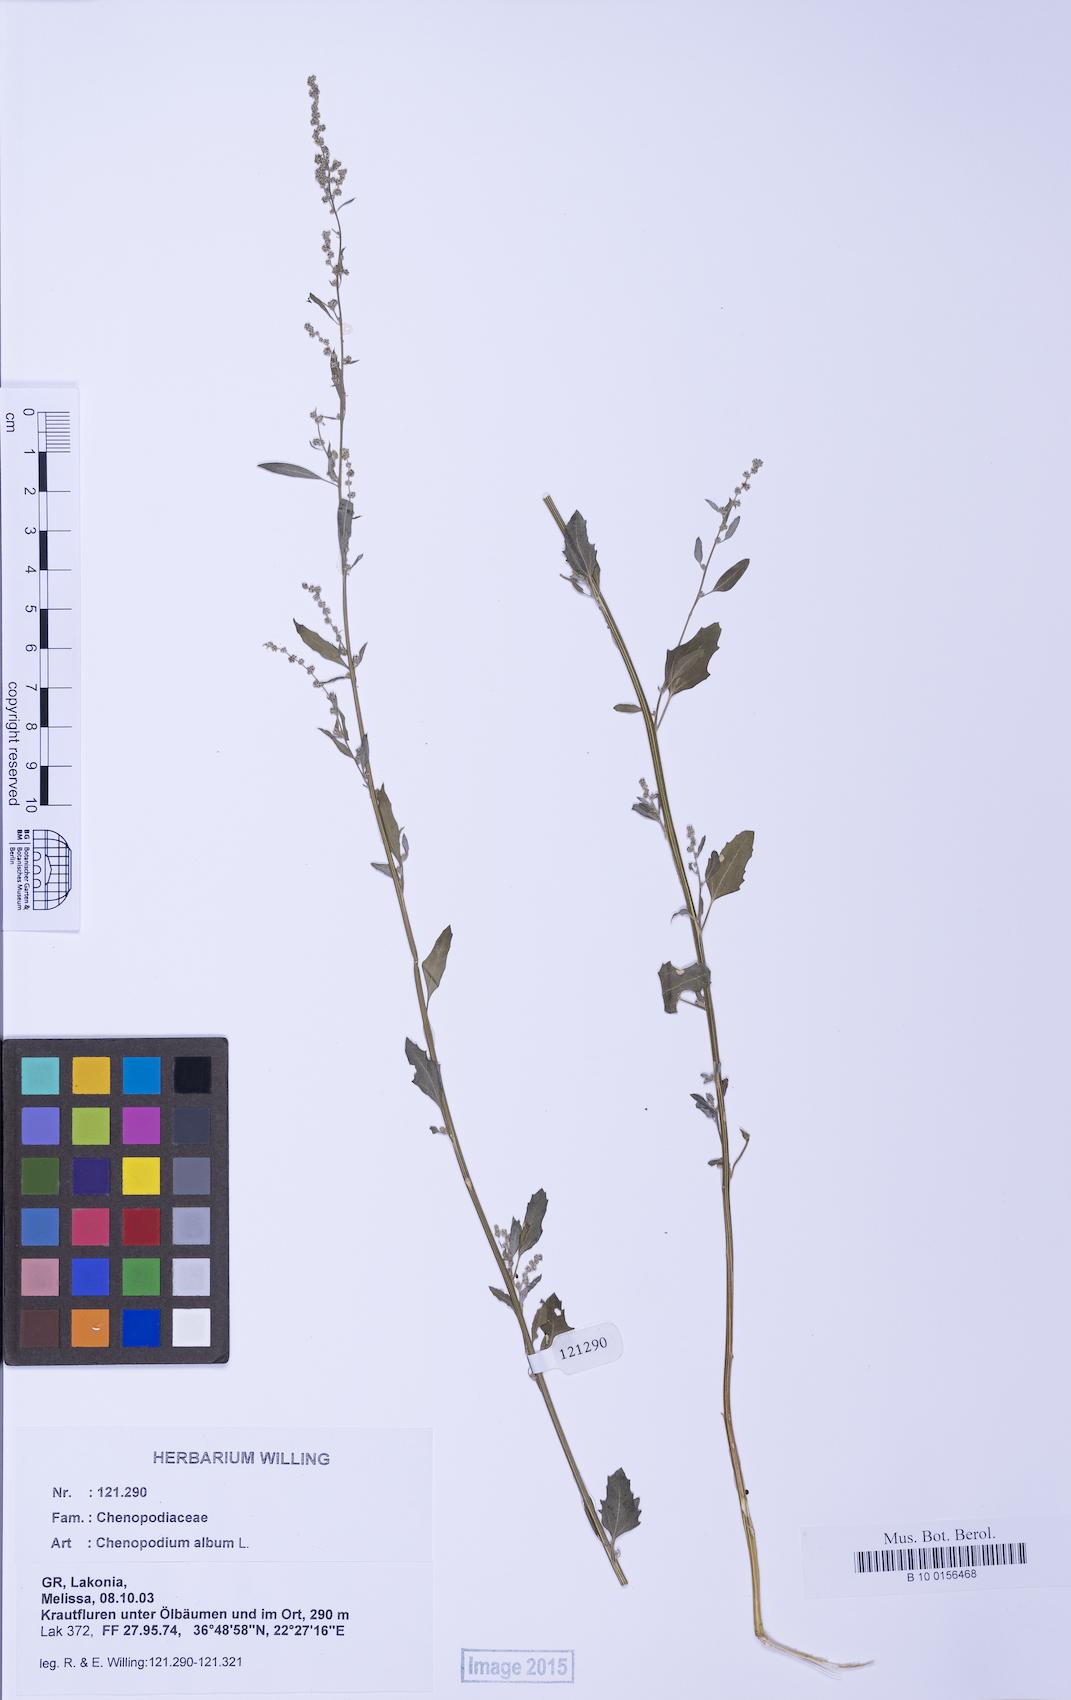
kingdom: Plantae
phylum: Tracheophyta
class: Magnoliopsida
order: Caryophyllales
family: Amaranthaceae
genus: Chenopodium
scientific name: Chenopodium album
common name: Fat-hen
